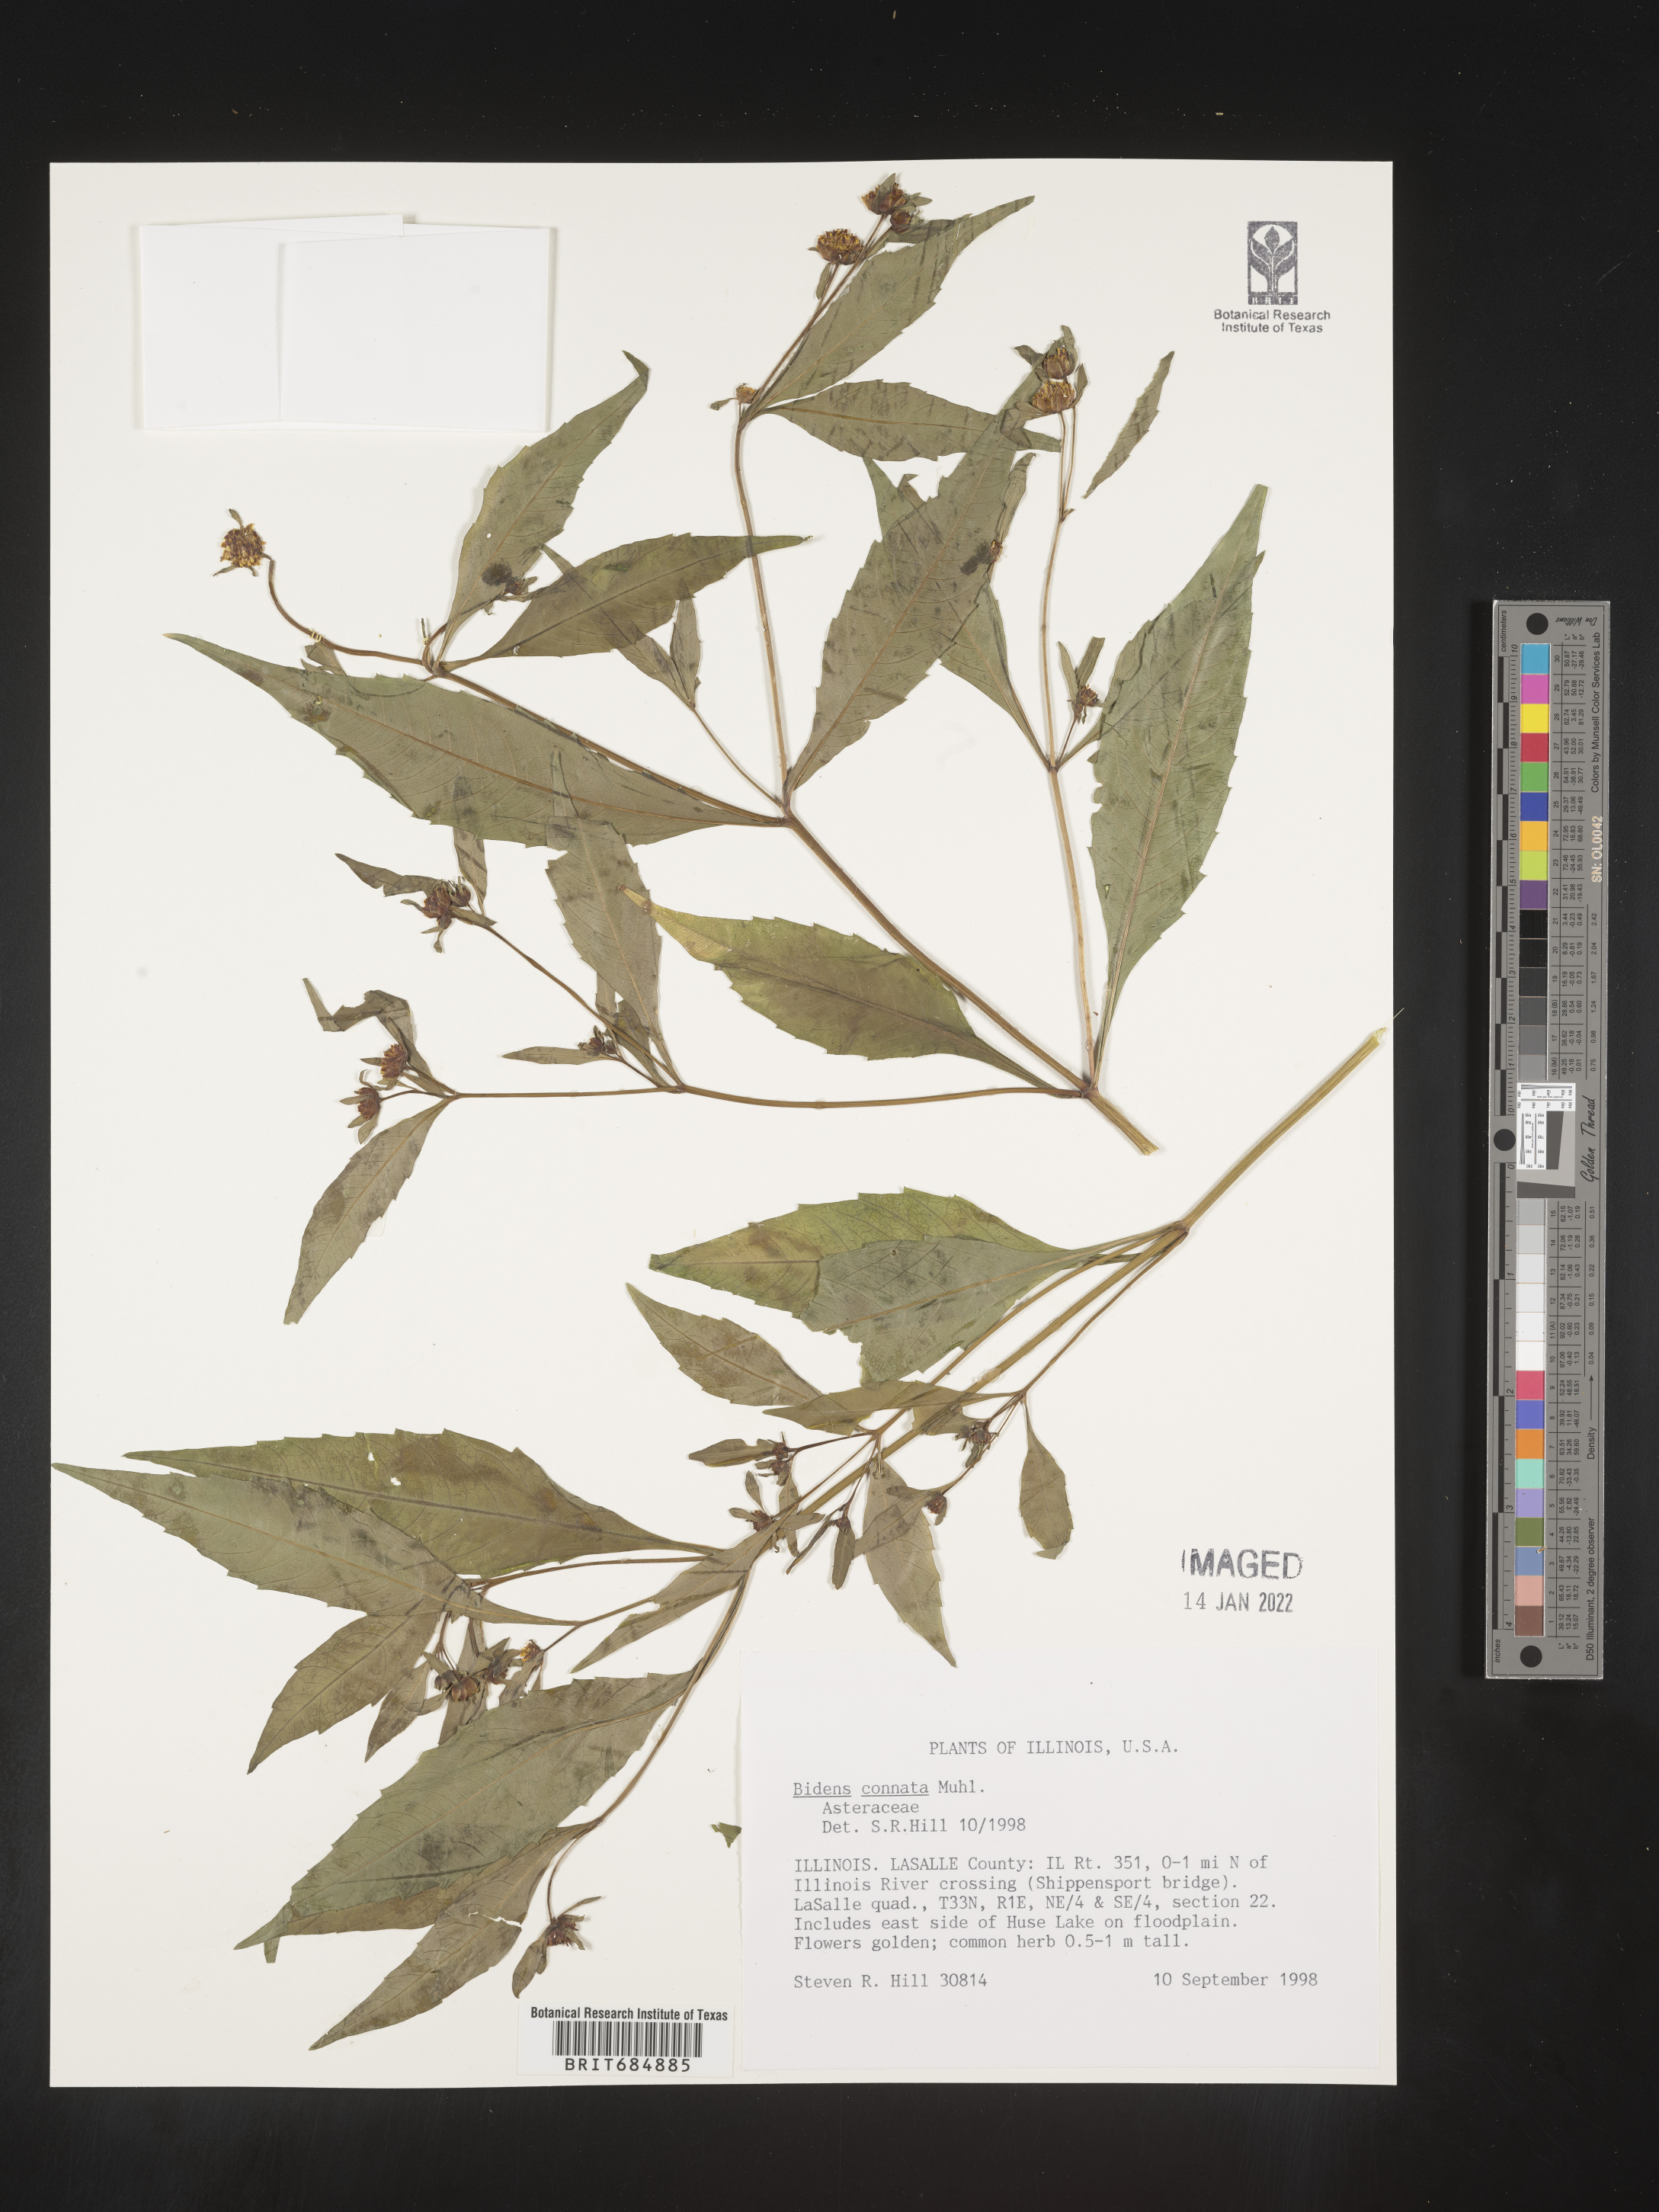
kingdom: Plantae
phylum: Tracheophyta
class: Magnoliopsida
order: Asterales
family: Asteraceae
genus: Bidens
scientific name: Bidens tripartita
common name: Trifid bur-marigold
